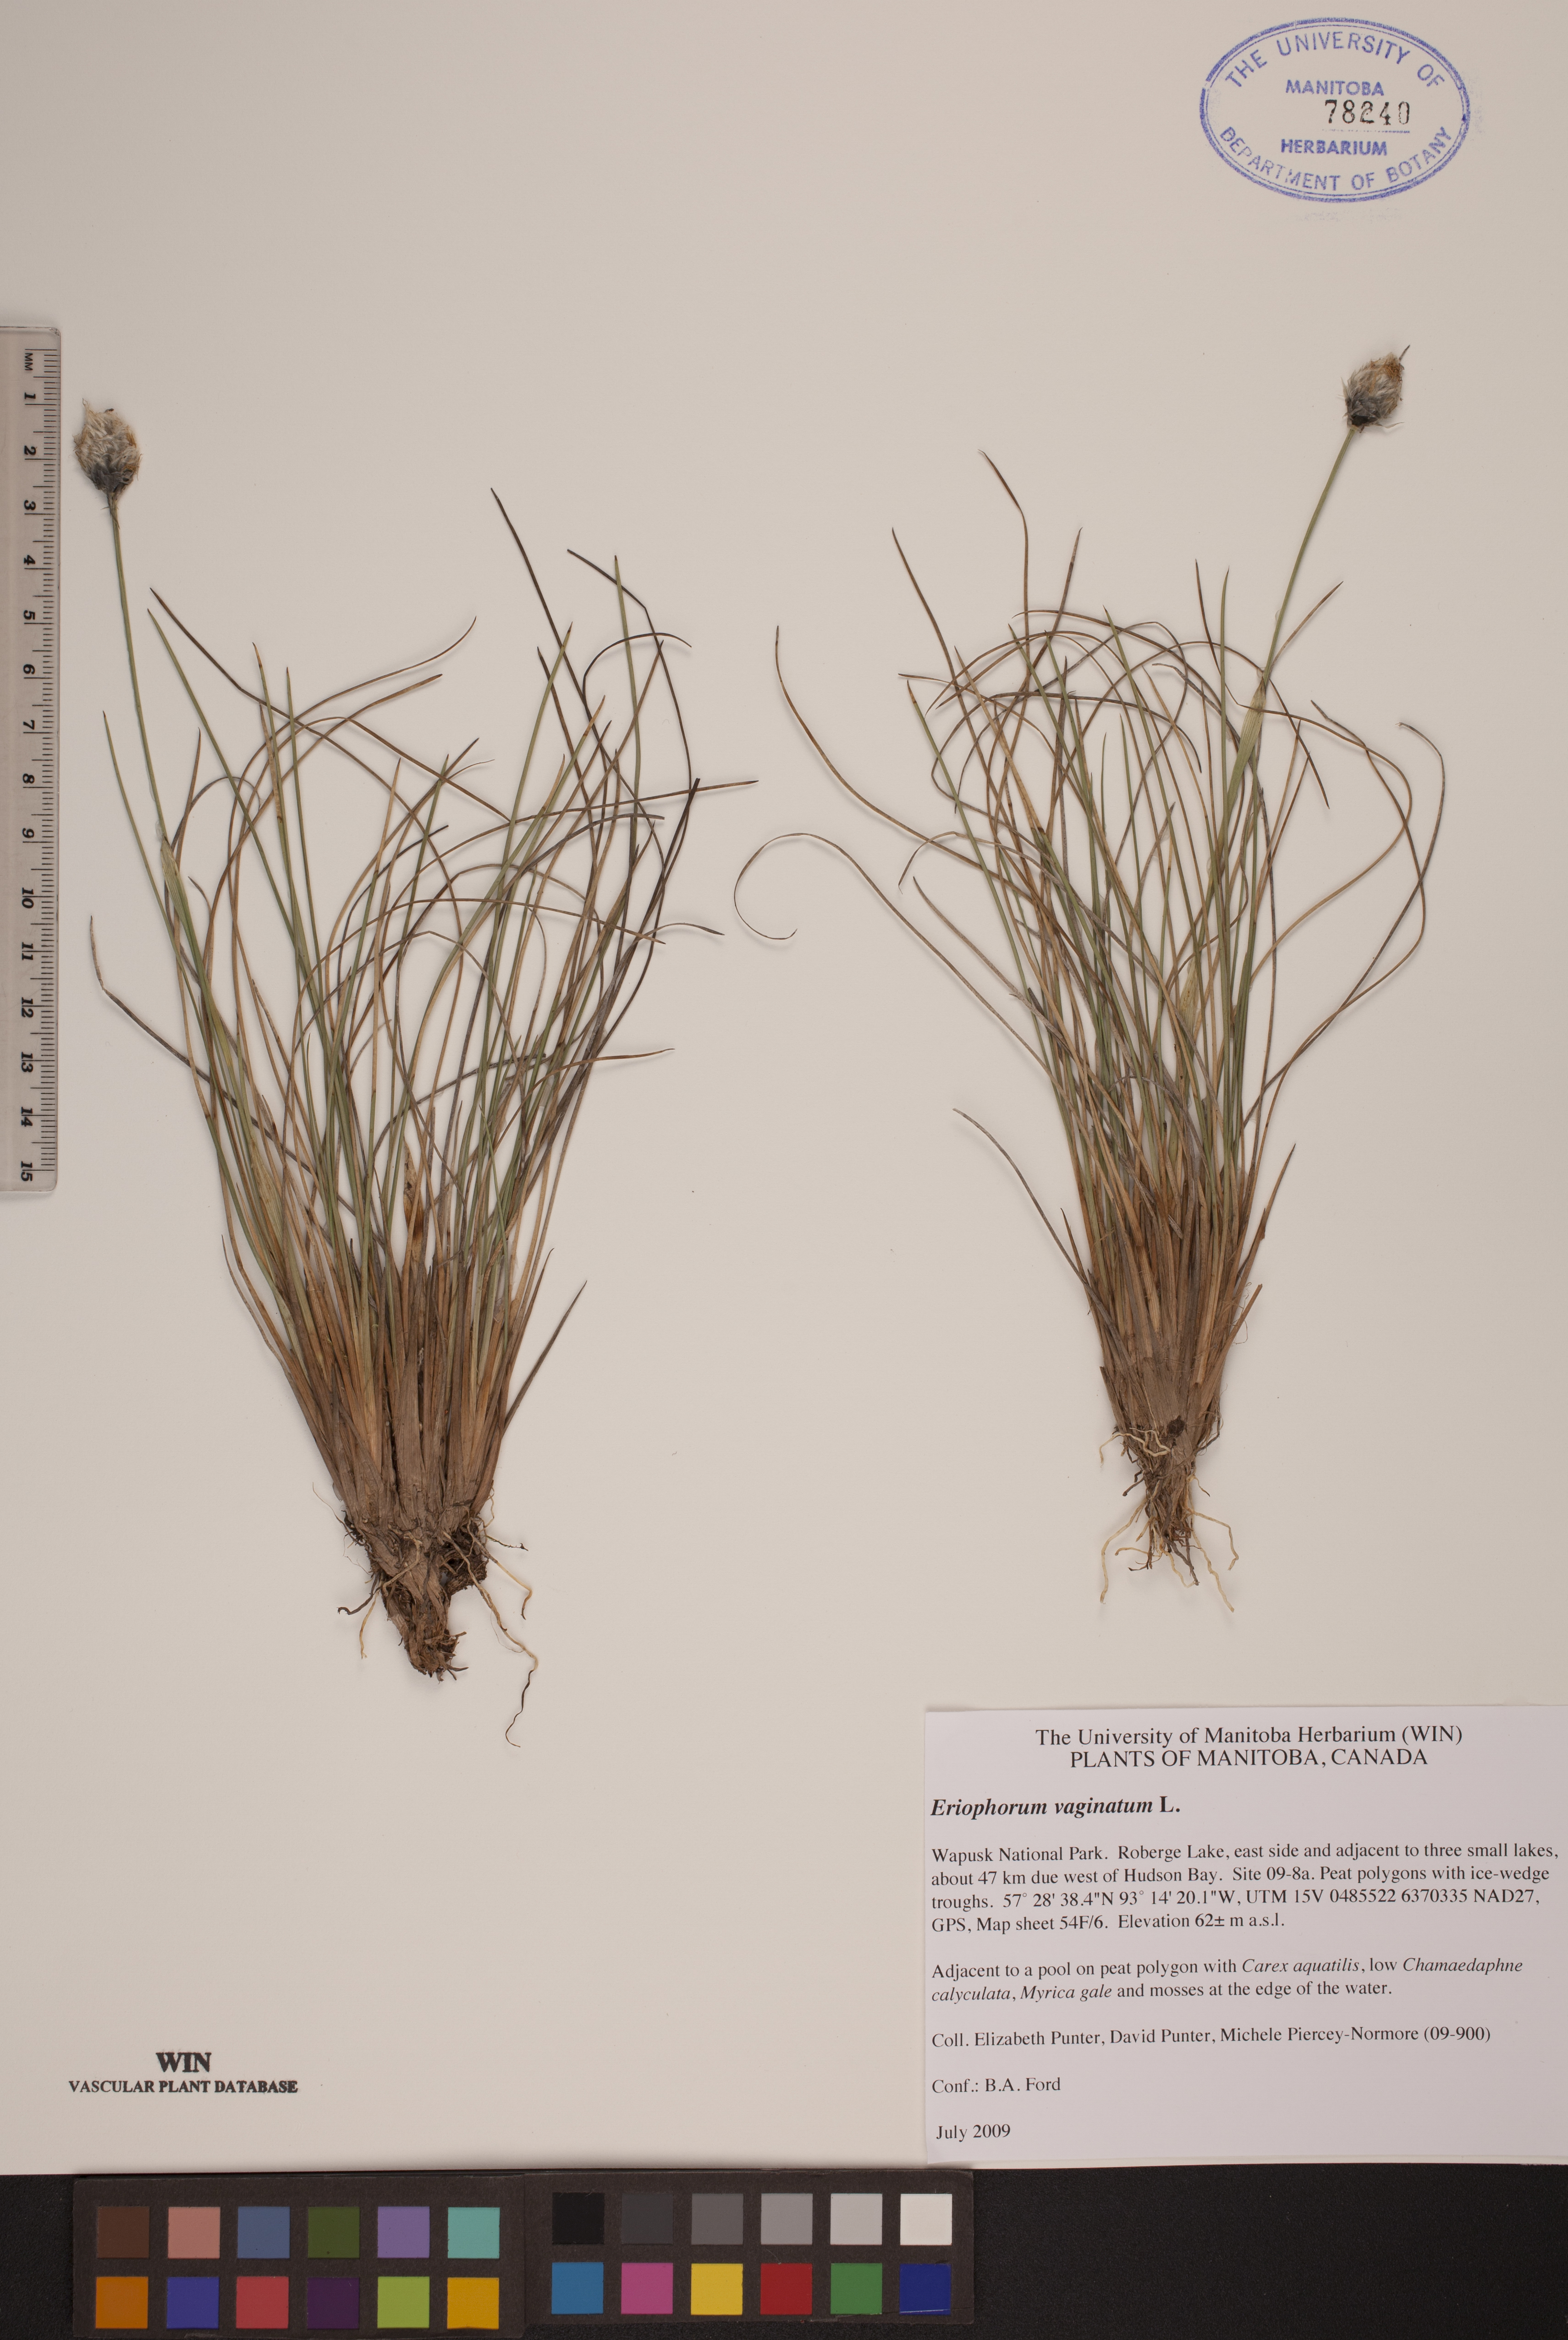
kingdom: Plantae
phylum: Tracheophyta
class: Liliopsida
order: Poales
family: Cyperaceae
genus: Eriophorum
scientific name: Eriophorum vaginatum
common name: Hare's-tail cottongrass
